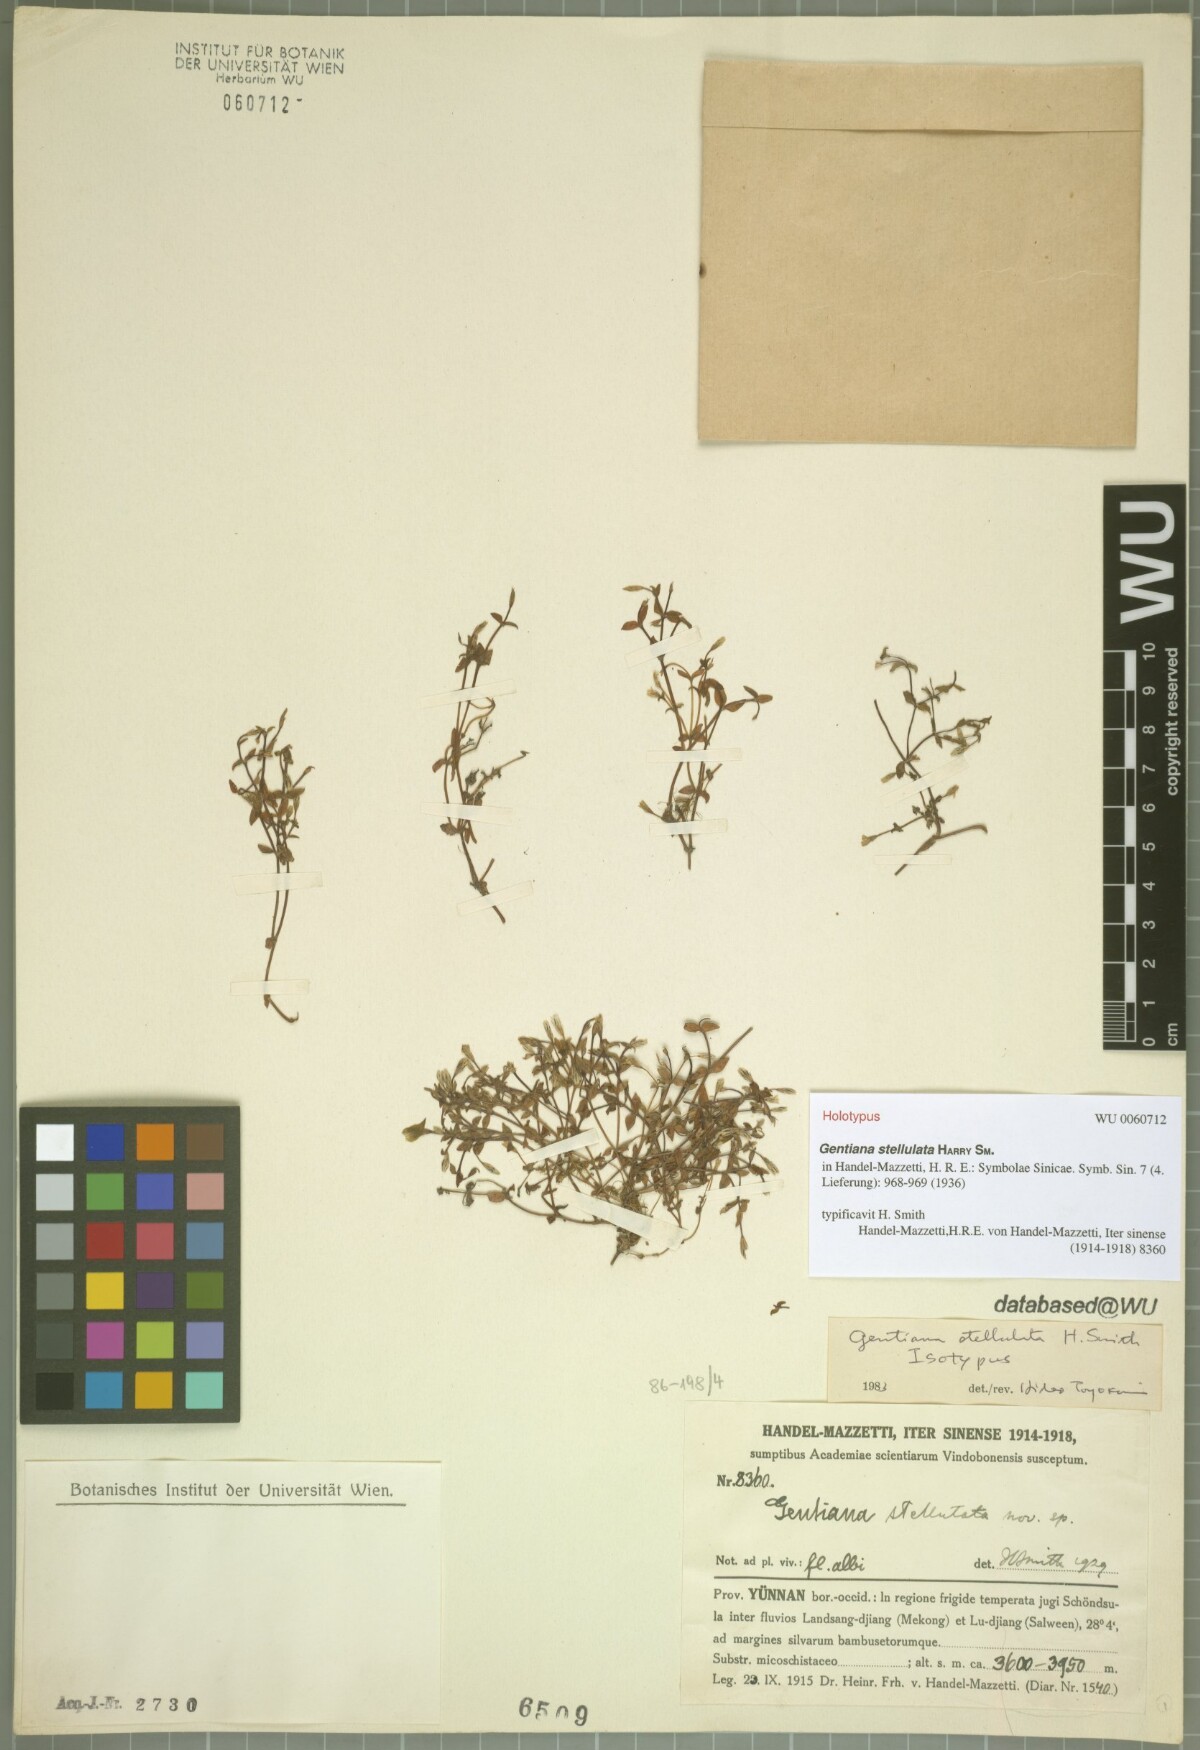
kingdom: Plantae
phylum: Tracheophyta
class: Magnoliopsida
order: Gentianales
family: Gentianaceae
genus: Gentiana
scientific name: Gentiana stellulata
